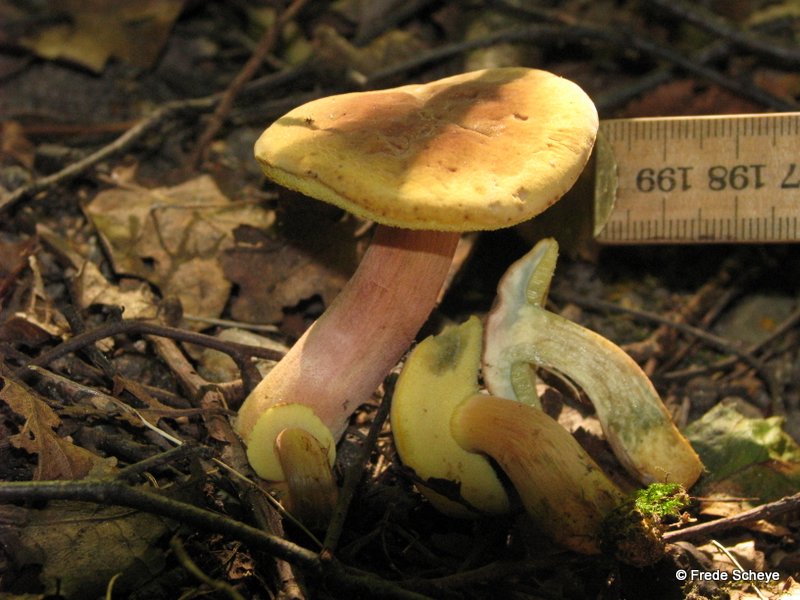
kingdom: Fungi
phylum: Basidiomycota
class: Agaricomycetes
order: Boletales
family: Boletaceae
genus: Hortiboletus
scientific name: Hortiboletus bubalinus
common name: aurora-rørhat
